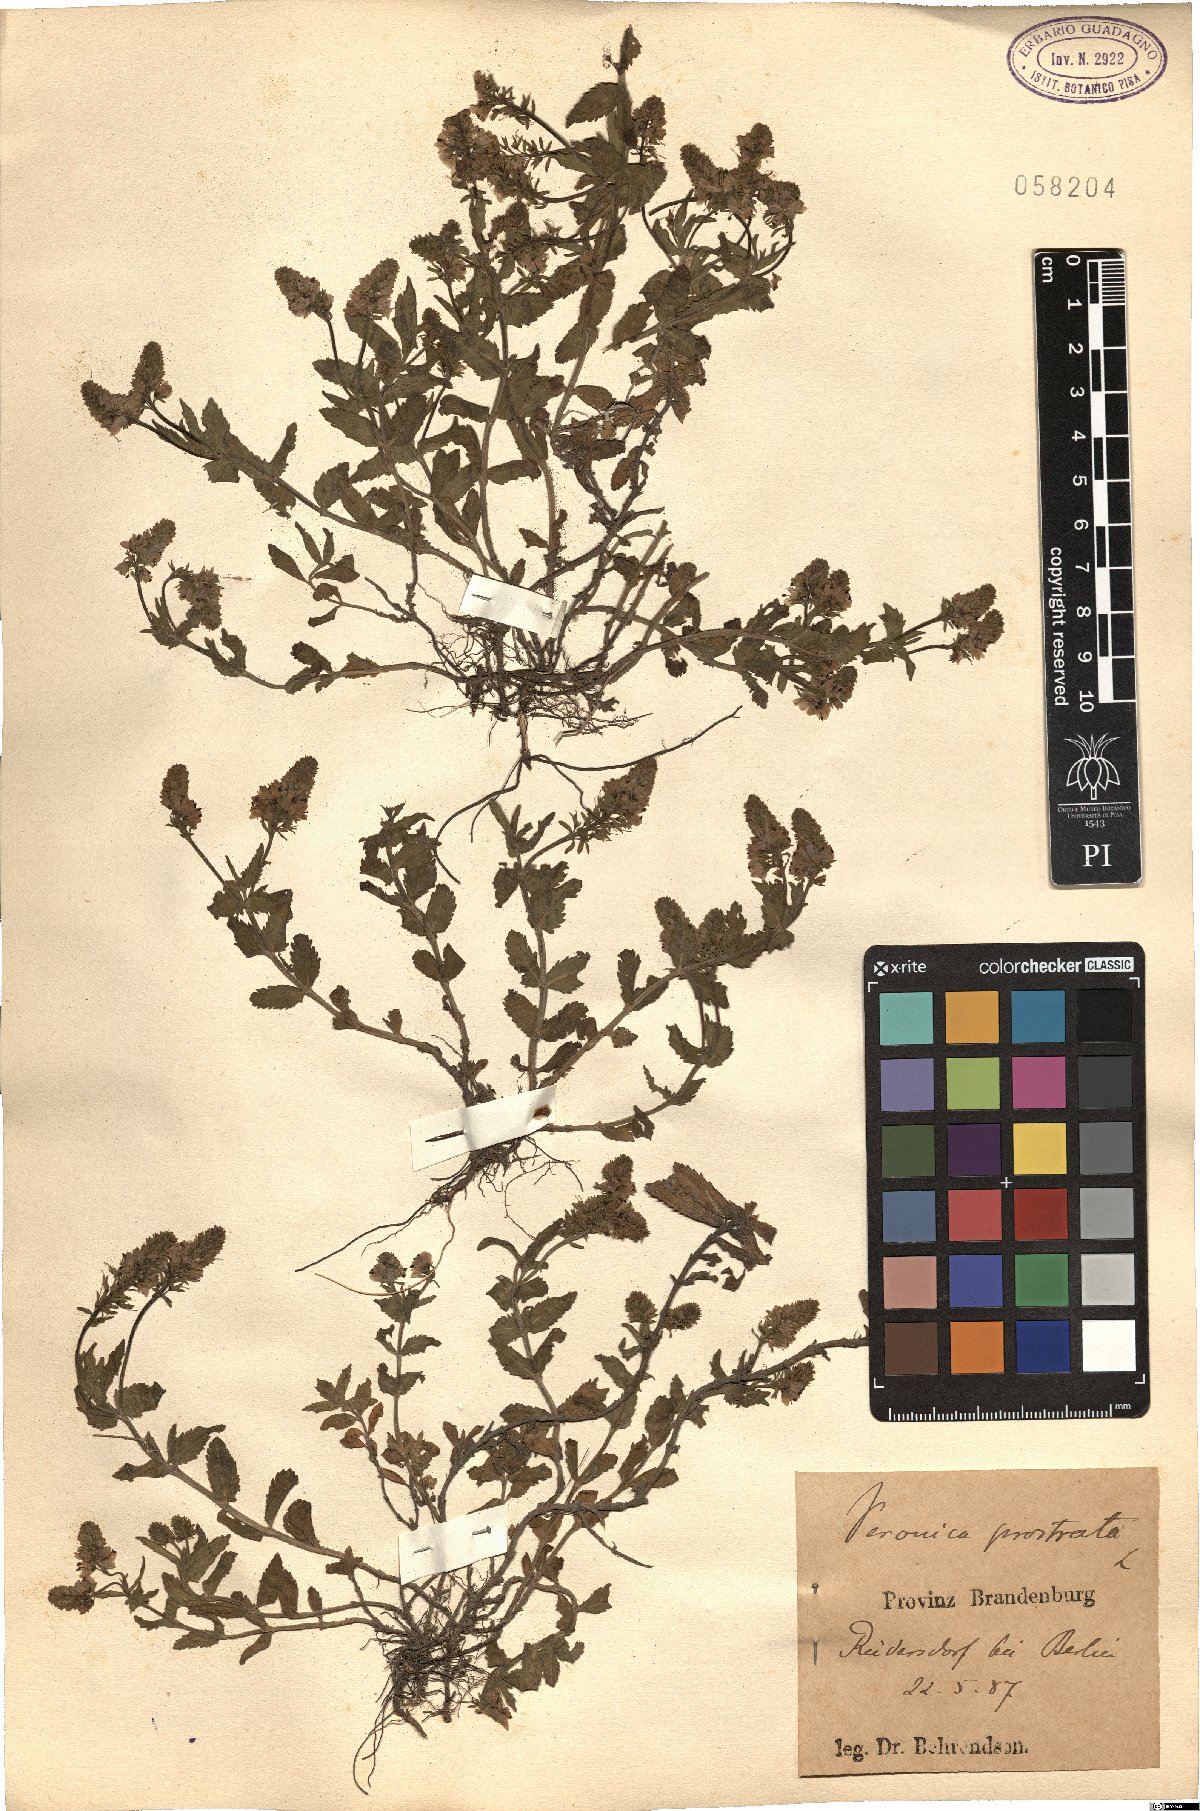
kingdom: Plantae
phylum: Tracheophyta
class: Magnoliopsida
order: Lamiales
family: Plantaginaceae
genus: Veronica
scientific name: Veronica prostrata
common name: Prostrate speedwell
